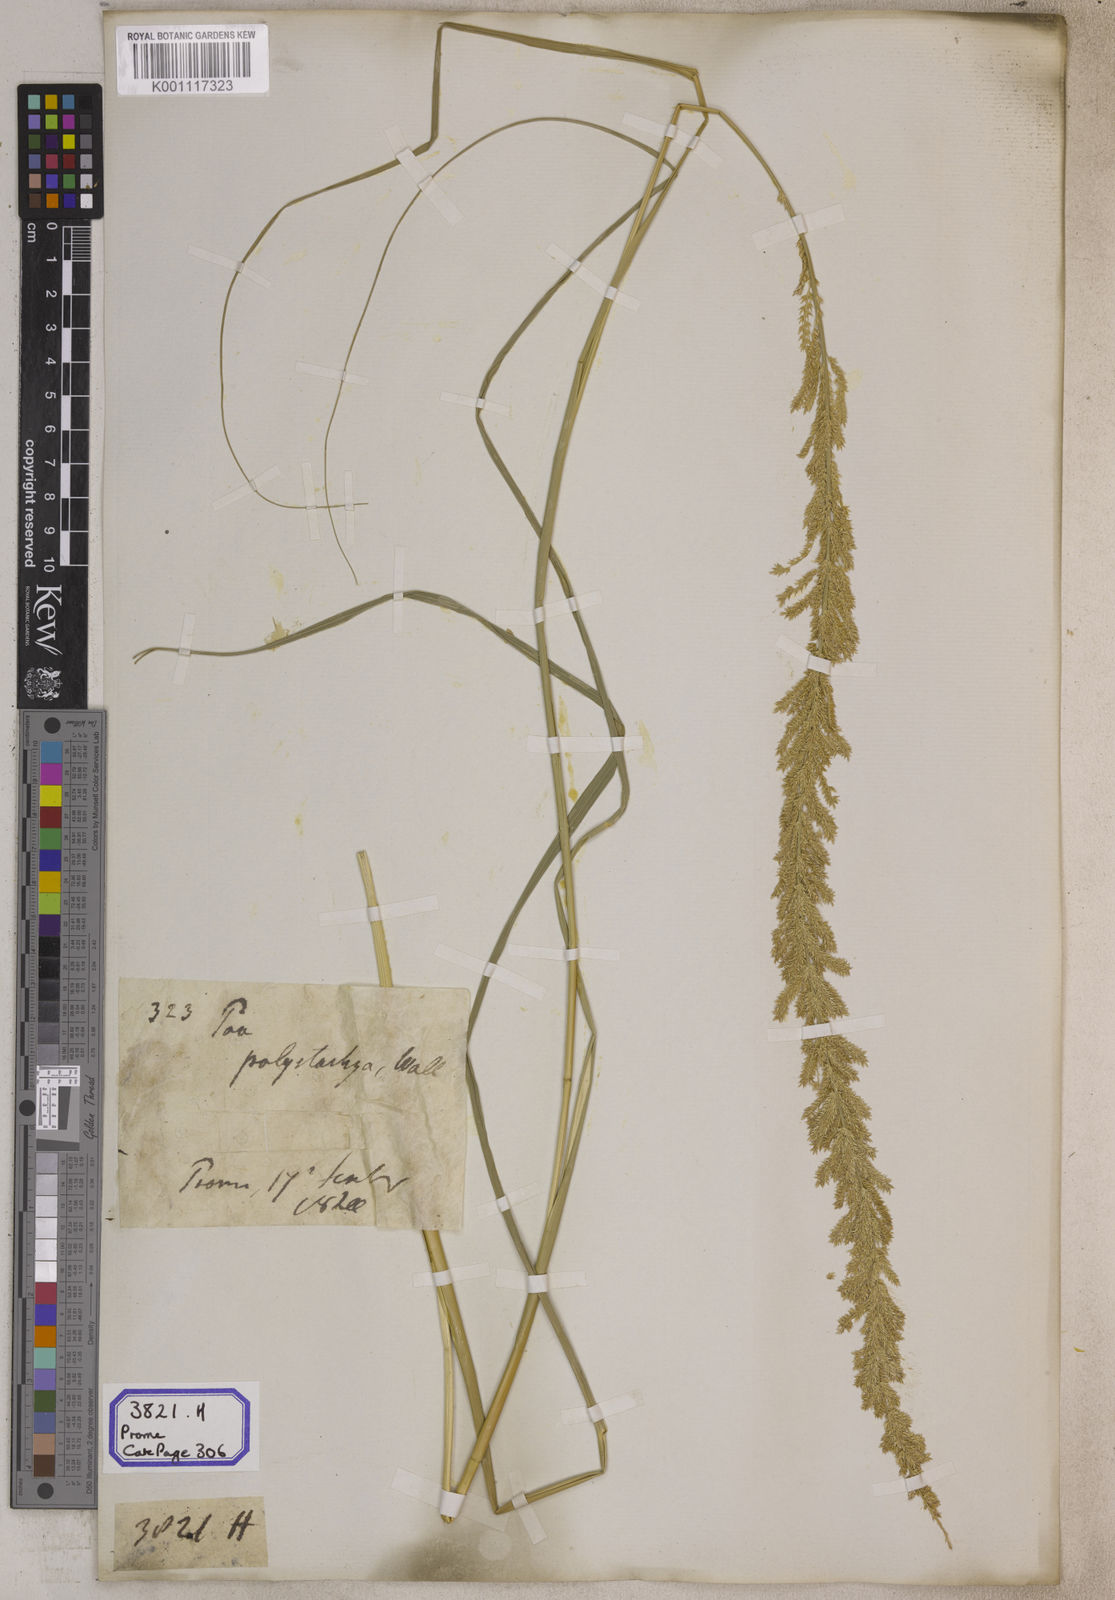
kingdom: Plantae
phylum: Tracheophyta
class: Liliopsida
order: Poales
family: Poaceae
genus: Eragrostis
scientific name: Eragrostis
